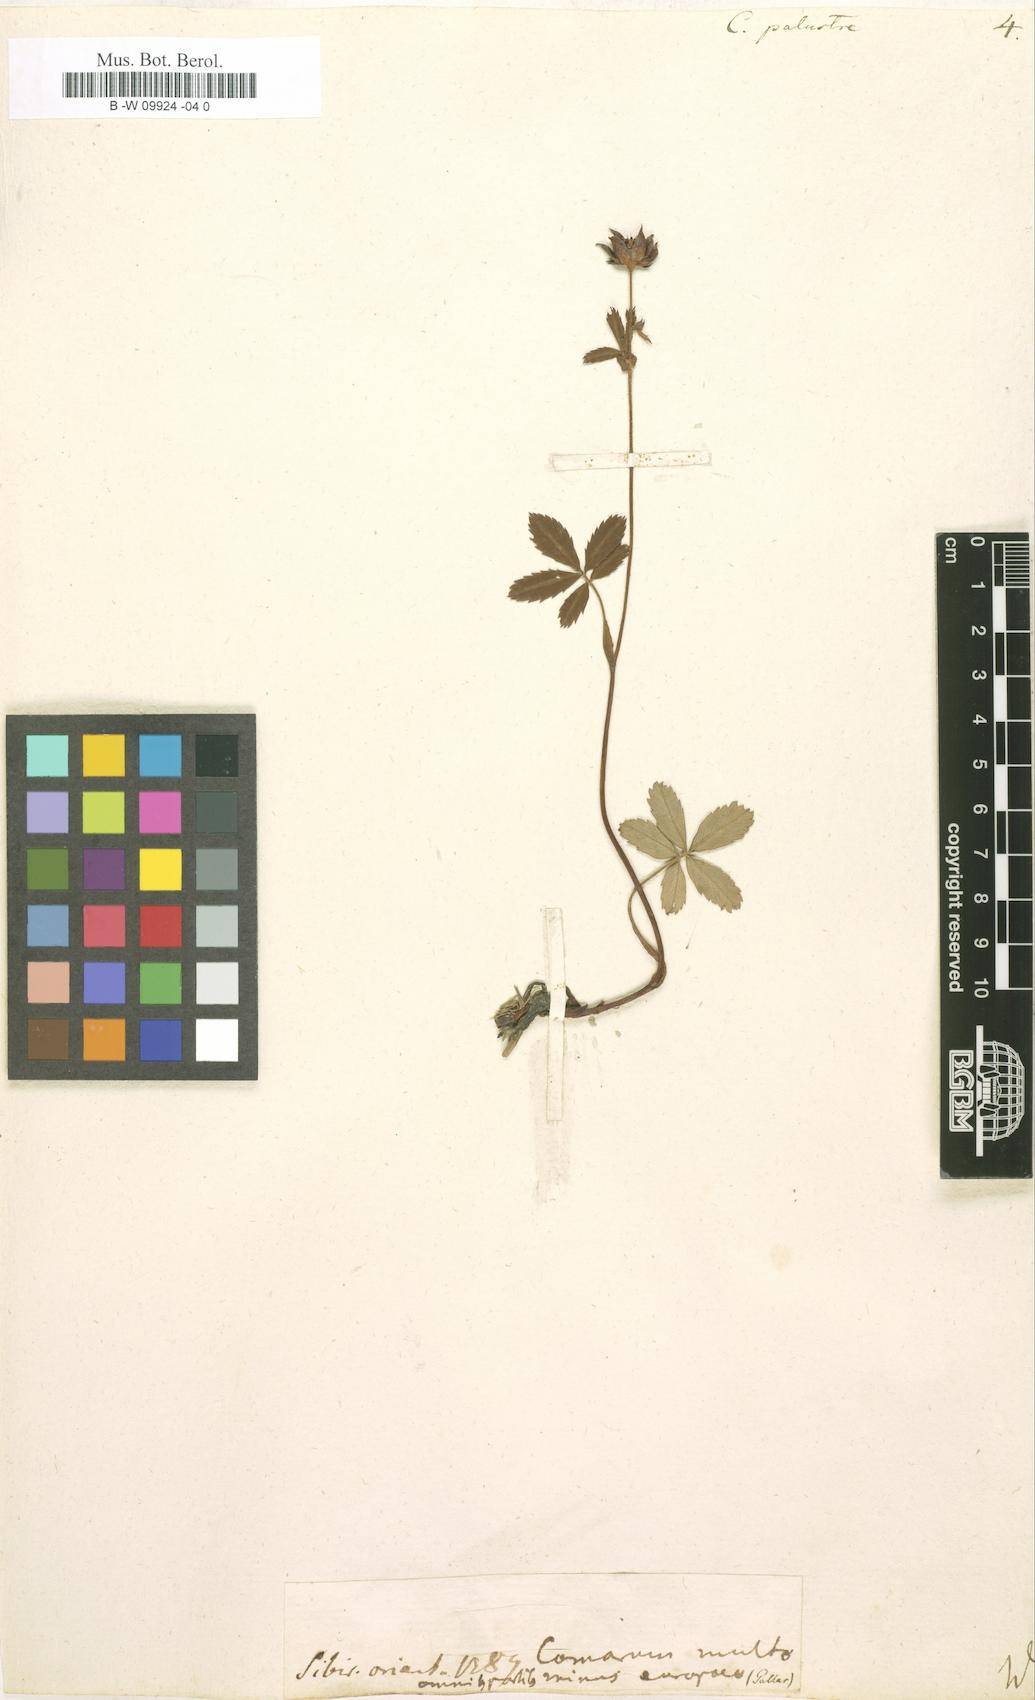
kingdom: Plantae
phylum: Tracheophyta
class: Magnoliopsida
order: Rosales
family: Rosaceae
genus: Comarum
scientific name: Comarum palustre
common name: Marsh cinquefoil
